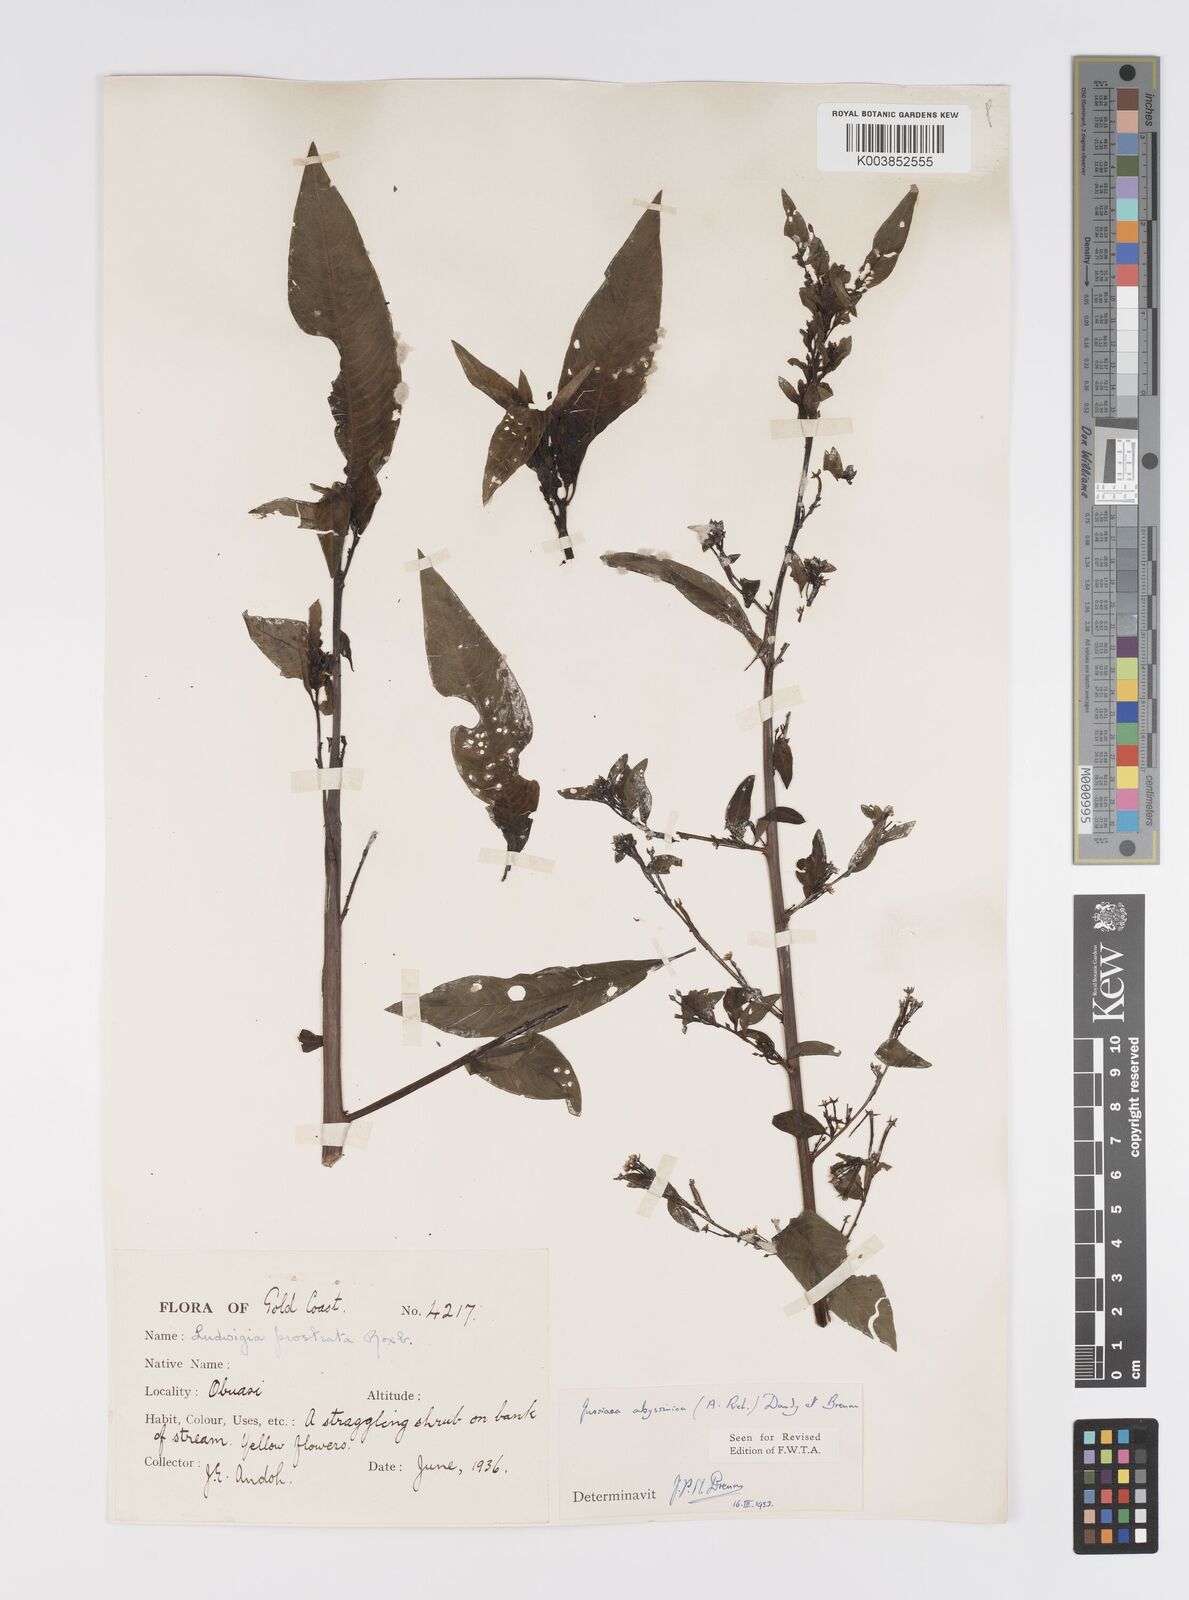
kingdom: Plantae
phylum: Tracheophyta
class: Magnoliopsida
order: Myrtales
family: Onagraceae
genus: Ludwigia
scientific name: Ludwigia abyssinica
